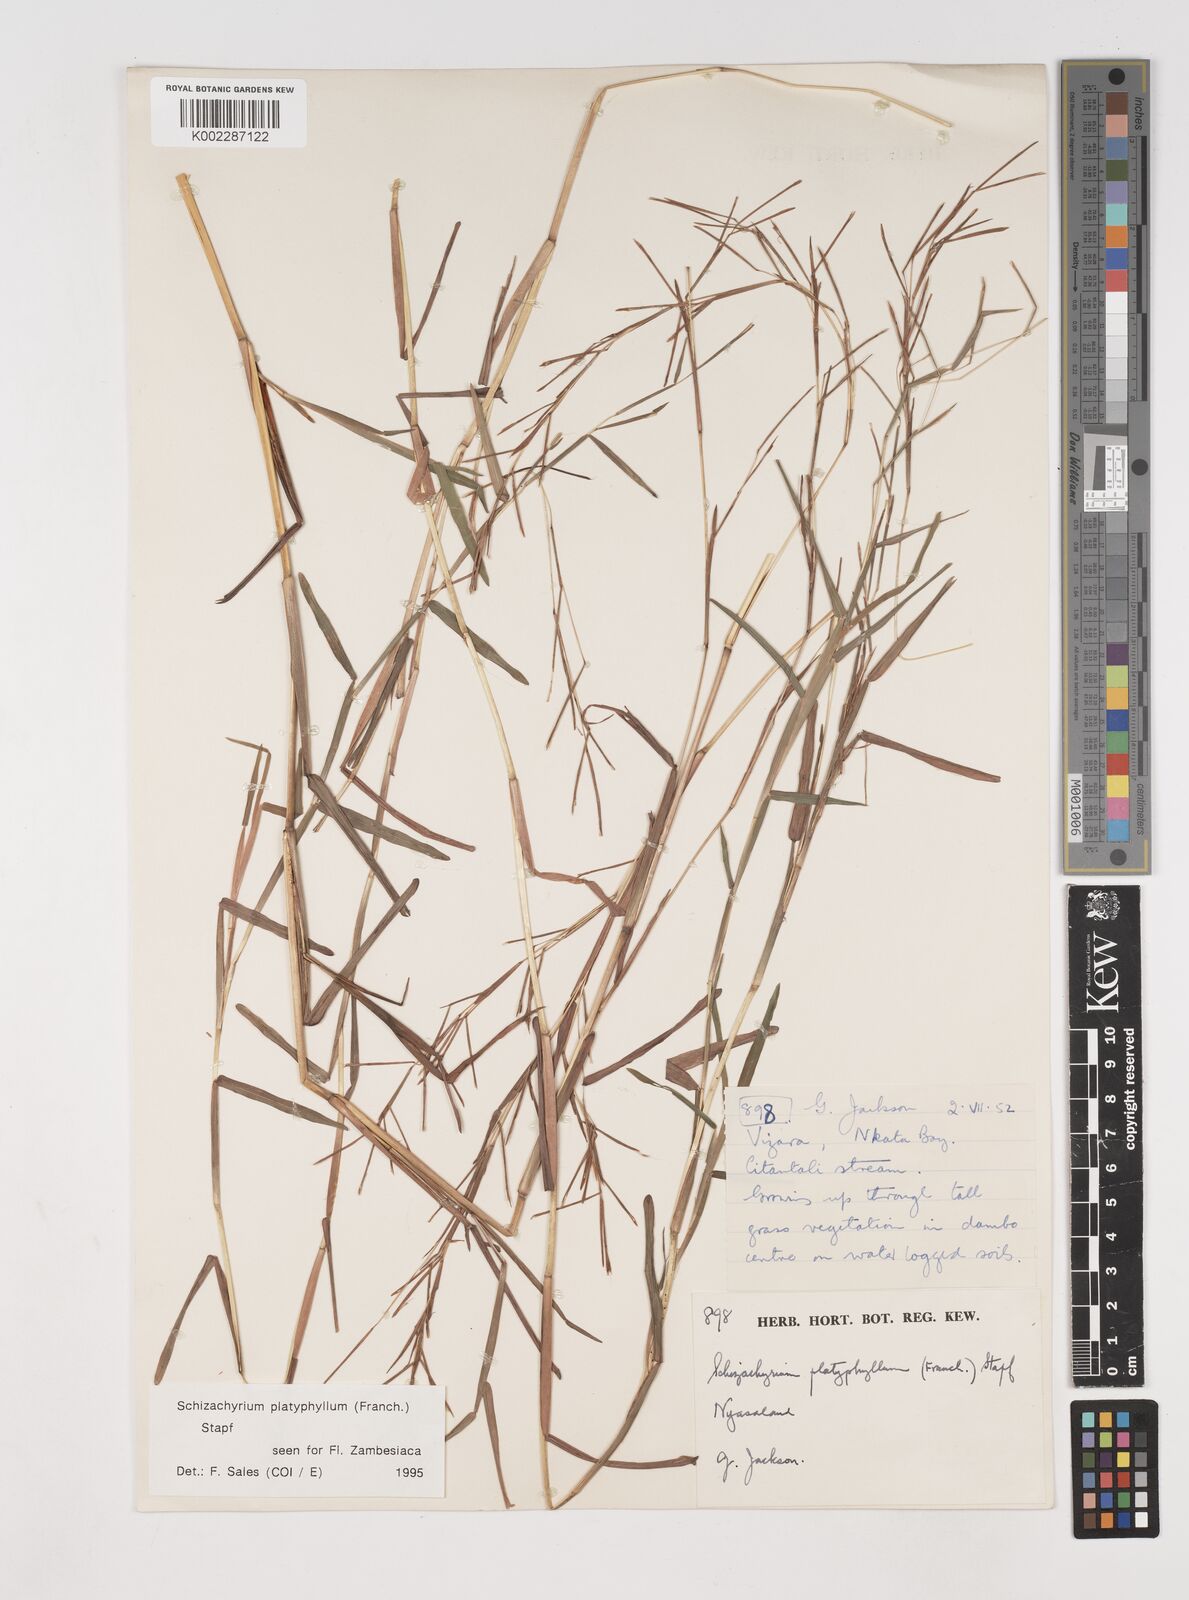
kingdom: Plantae
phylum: Tracheophyta
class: Liliopsida
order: Poales
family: Poaceae
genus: Schizachyrium
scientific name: Schizachyrium platyphyllum
